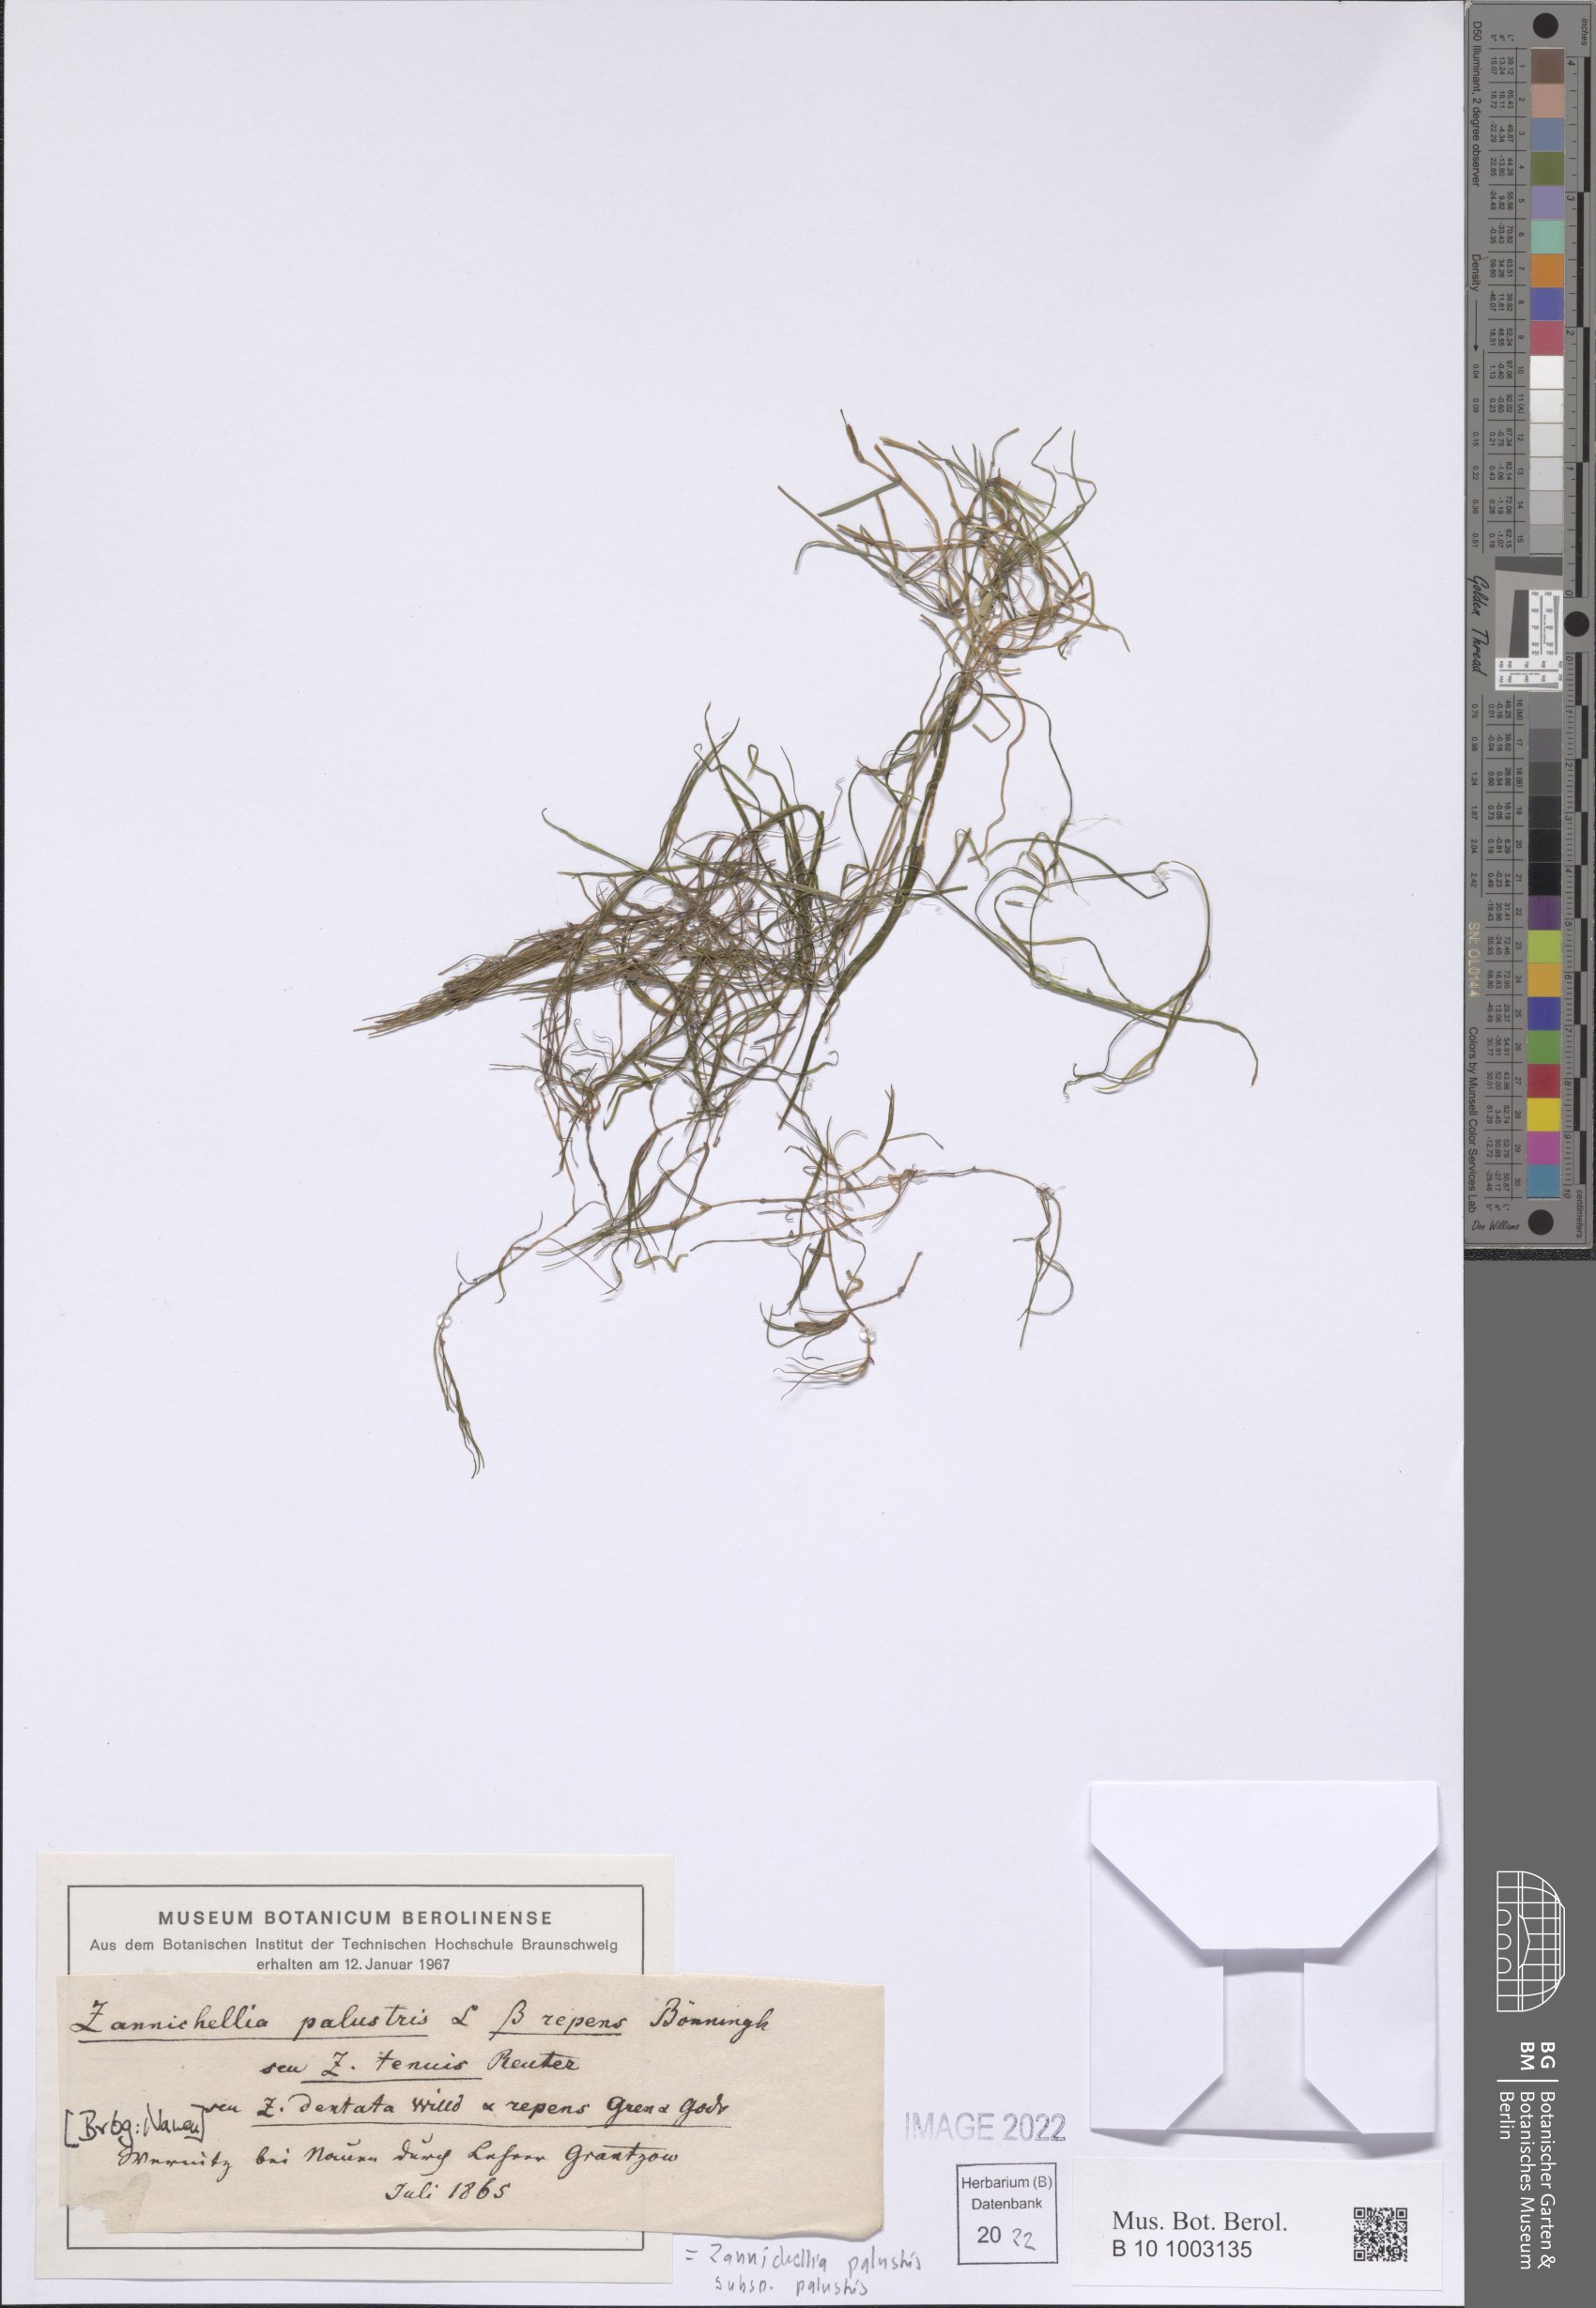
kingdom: Plantae
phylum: Tracheophyta
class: Liliopsida
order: Alismatales
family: Potamogetonaceae
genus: Zannichellia
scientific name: Zannichellia palustris
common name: Horned pondweed
